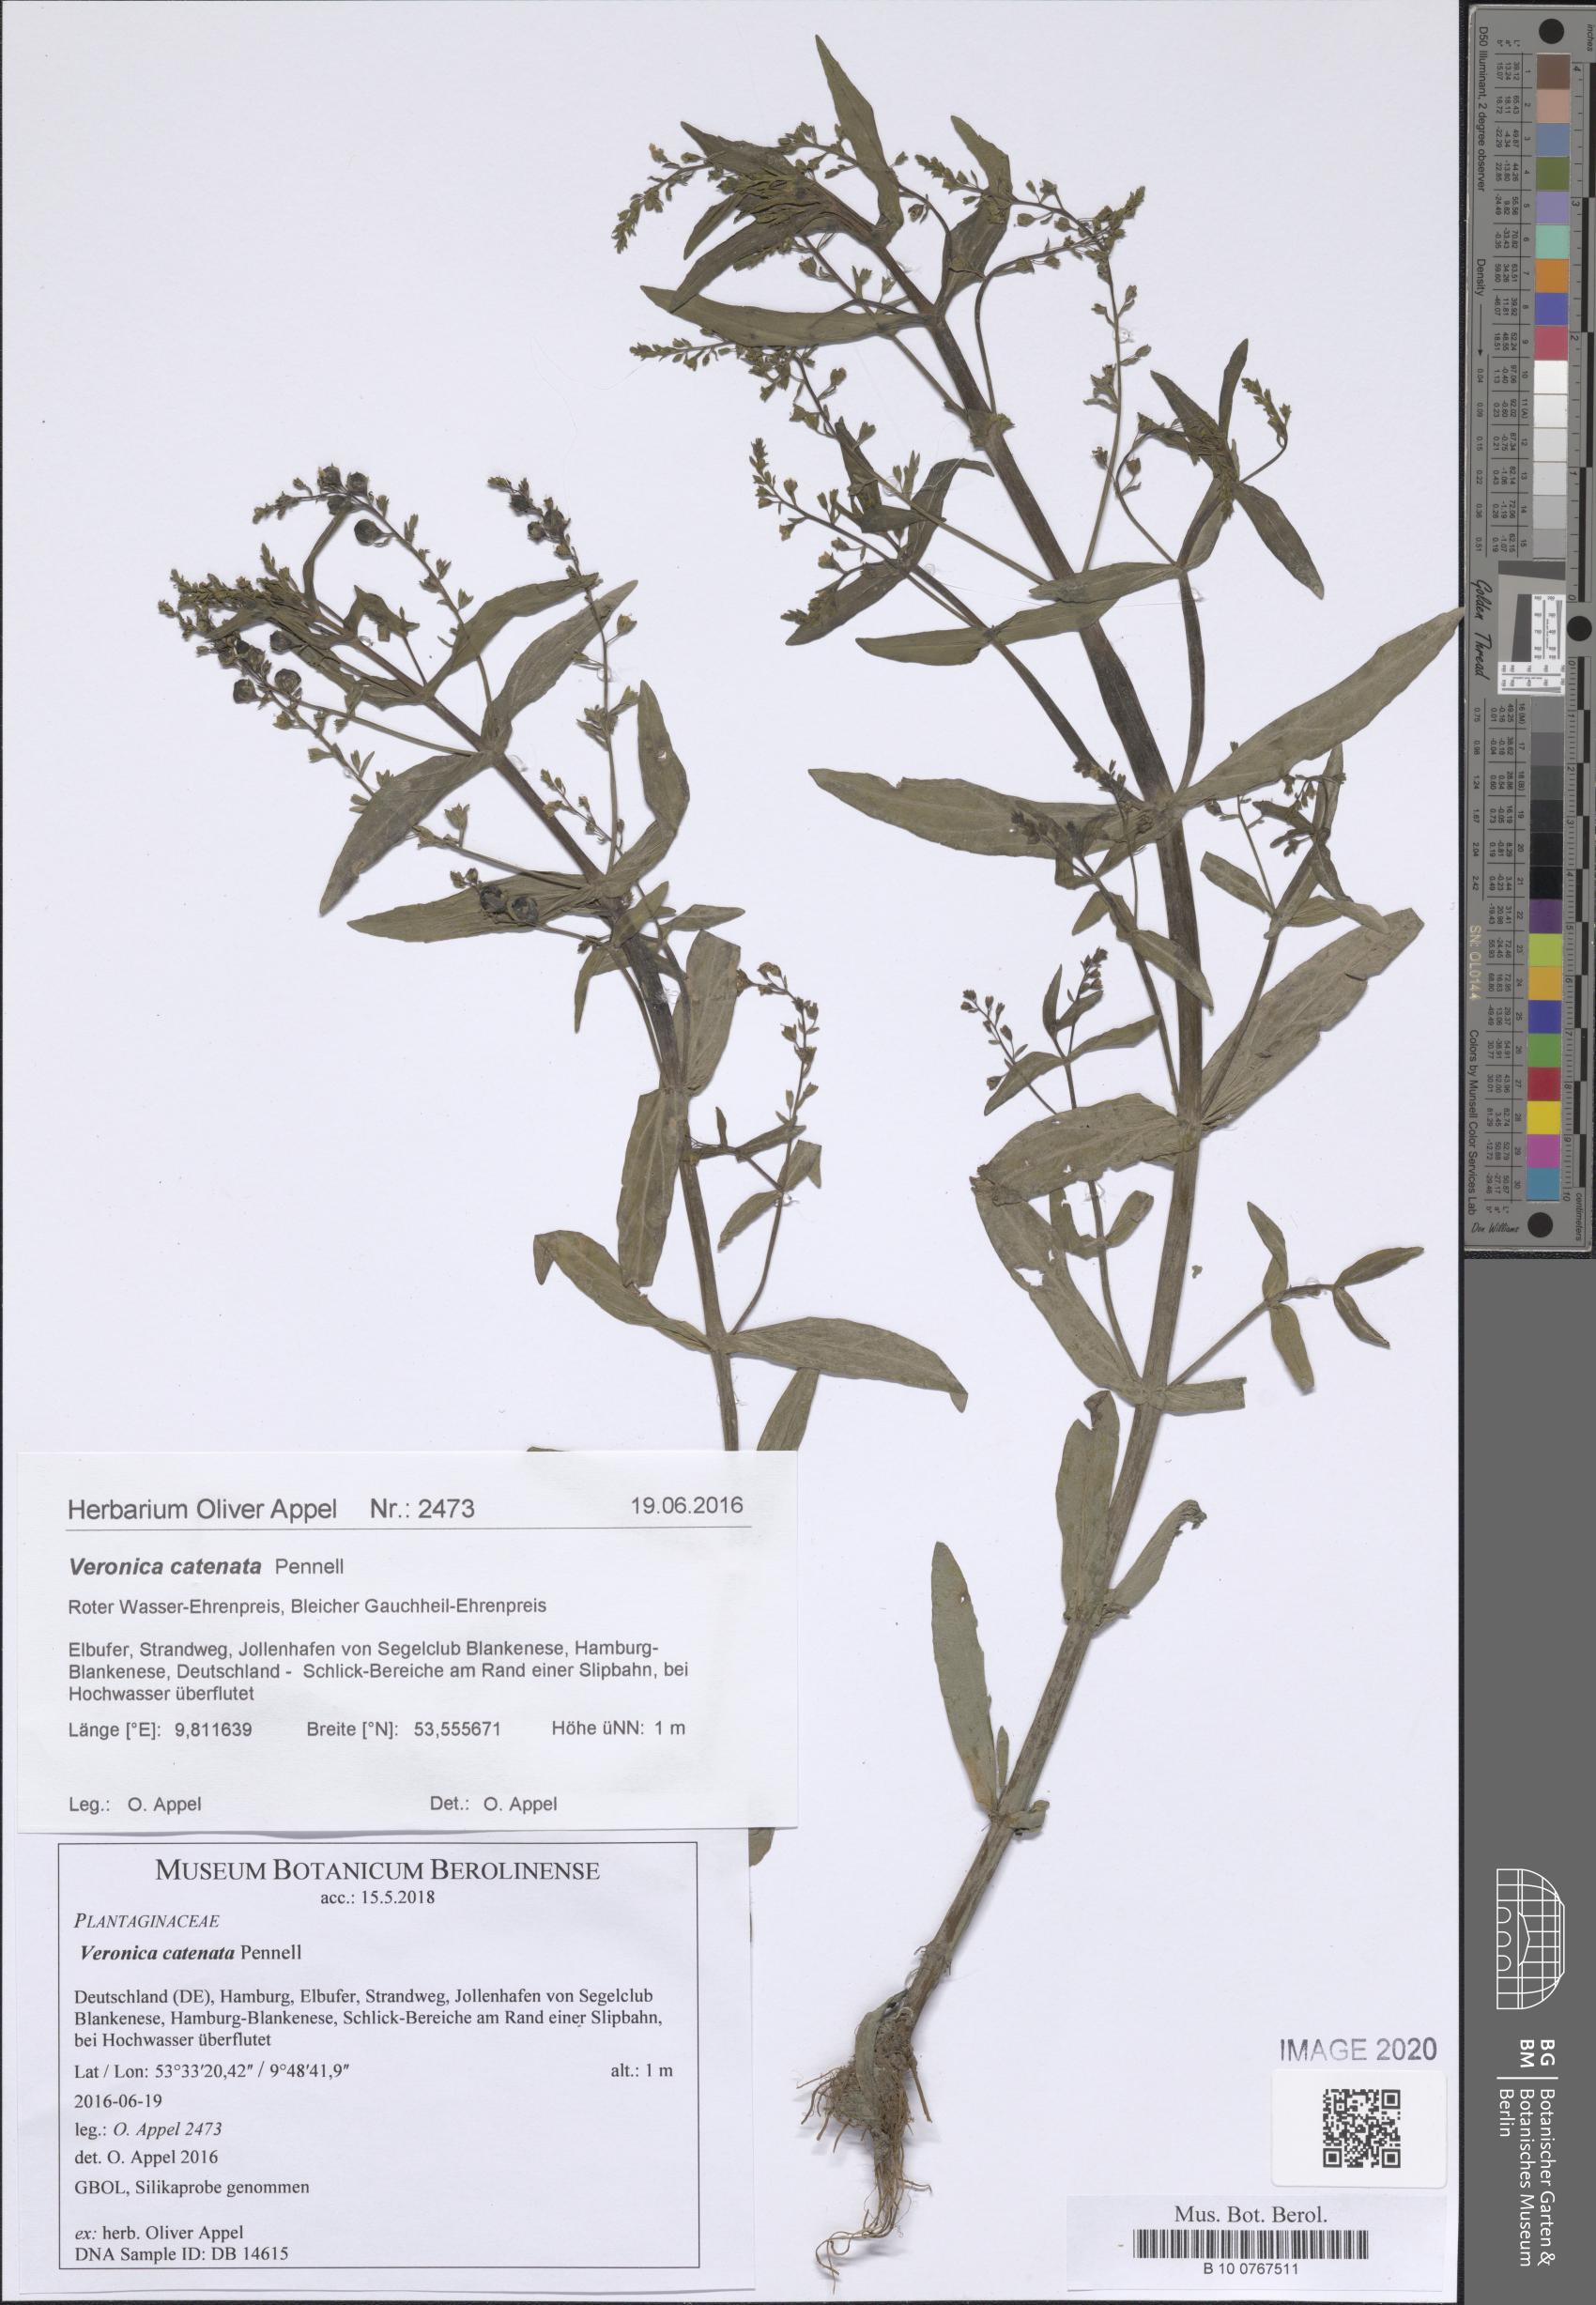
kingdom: Plantae
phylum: Tracheophyta
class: Magnoliopsida
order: Lamiales
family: Plantaginaceae
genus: Veronica
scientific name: Veronica catenata
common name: Pink water-speedwell
